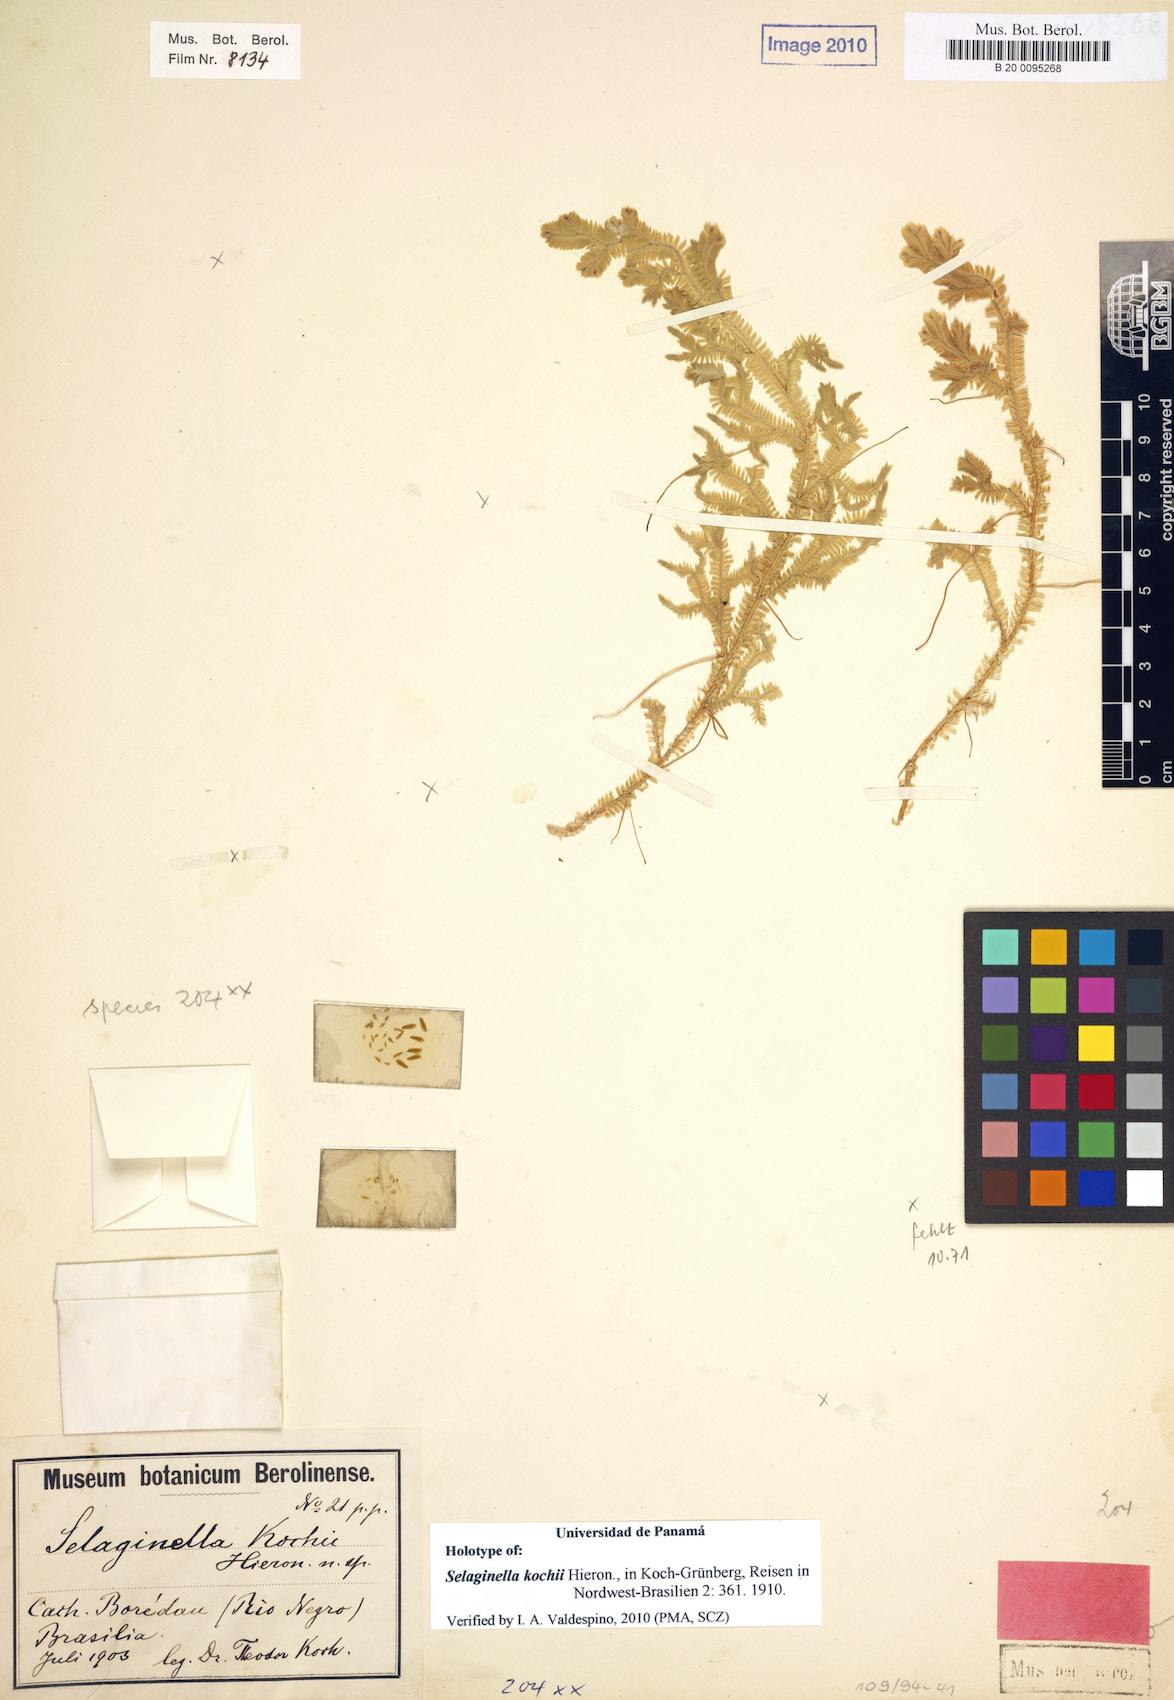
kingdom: Plantae
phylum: Tracheophyta
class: Lycopodiopsida
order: Selaginellales
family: Selaginellaceae
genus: Selaginella
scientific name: Selaginella kochii
